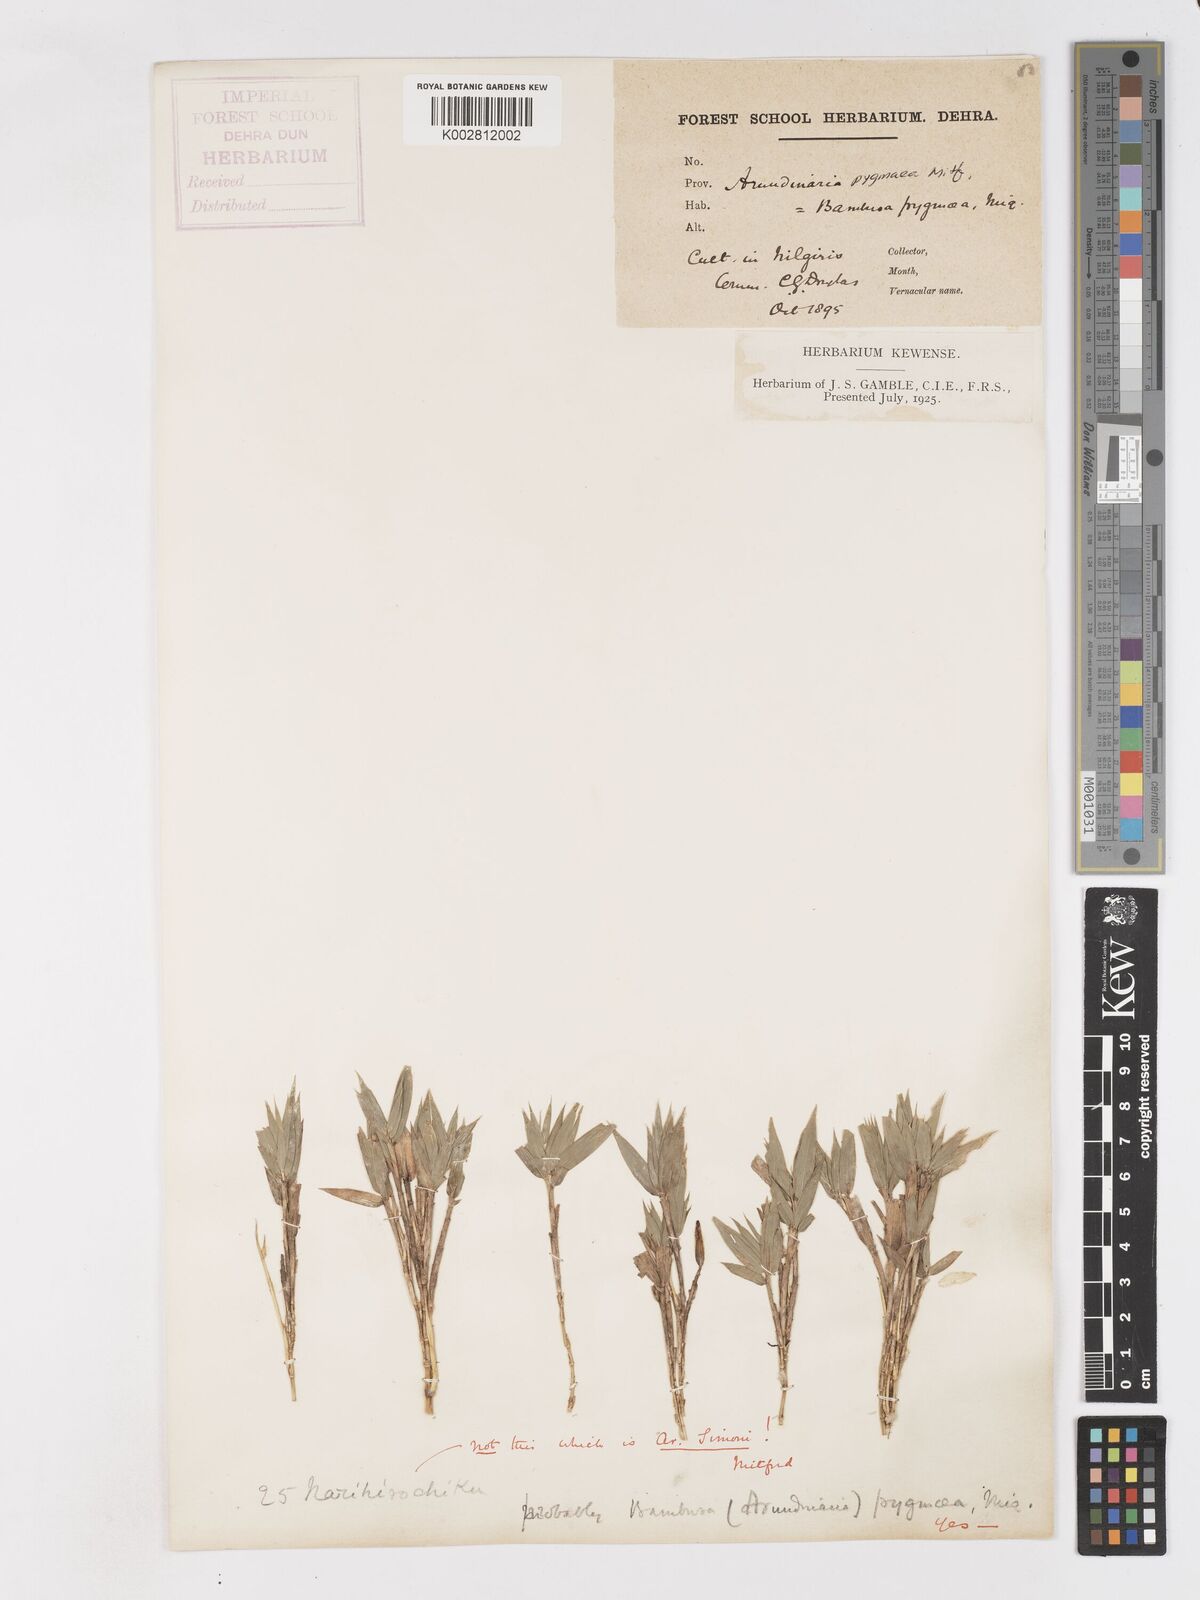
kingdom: Plantae
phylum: Tracheophyta
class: Liliopsida
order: Poales
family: Poaceae
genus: Pleioblastus
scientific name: Pleioblastus amarus
